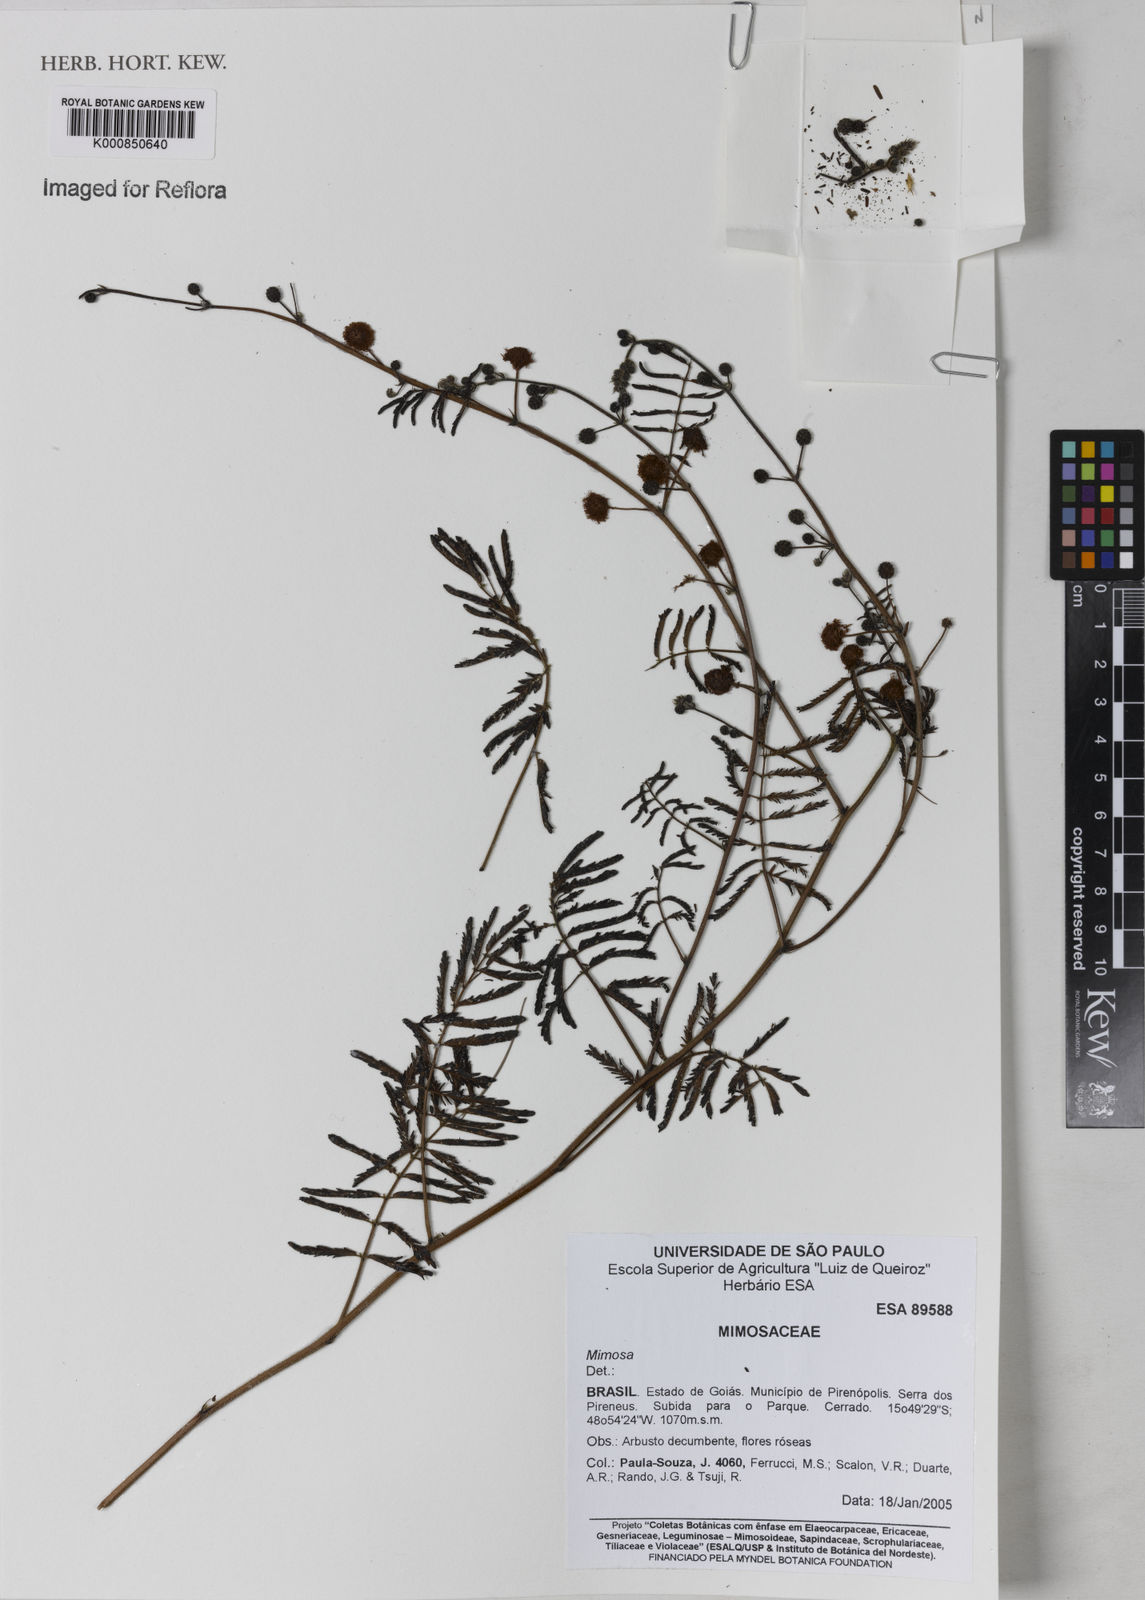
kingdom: Plantae
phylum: Tracheophyta
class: Magnoliopsida
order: Fabales
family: Fabaceae
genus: Mimosa
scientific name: Mimosa gracilis
